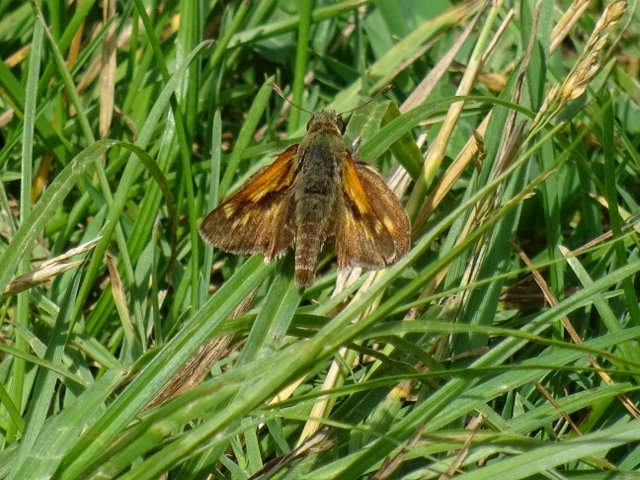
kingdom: Animalia
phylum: Arthropoda
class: Insecta
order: Lepidoptera
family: Hesperiidae
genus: Polites
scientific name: Polites
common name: Long Dash Skipper
